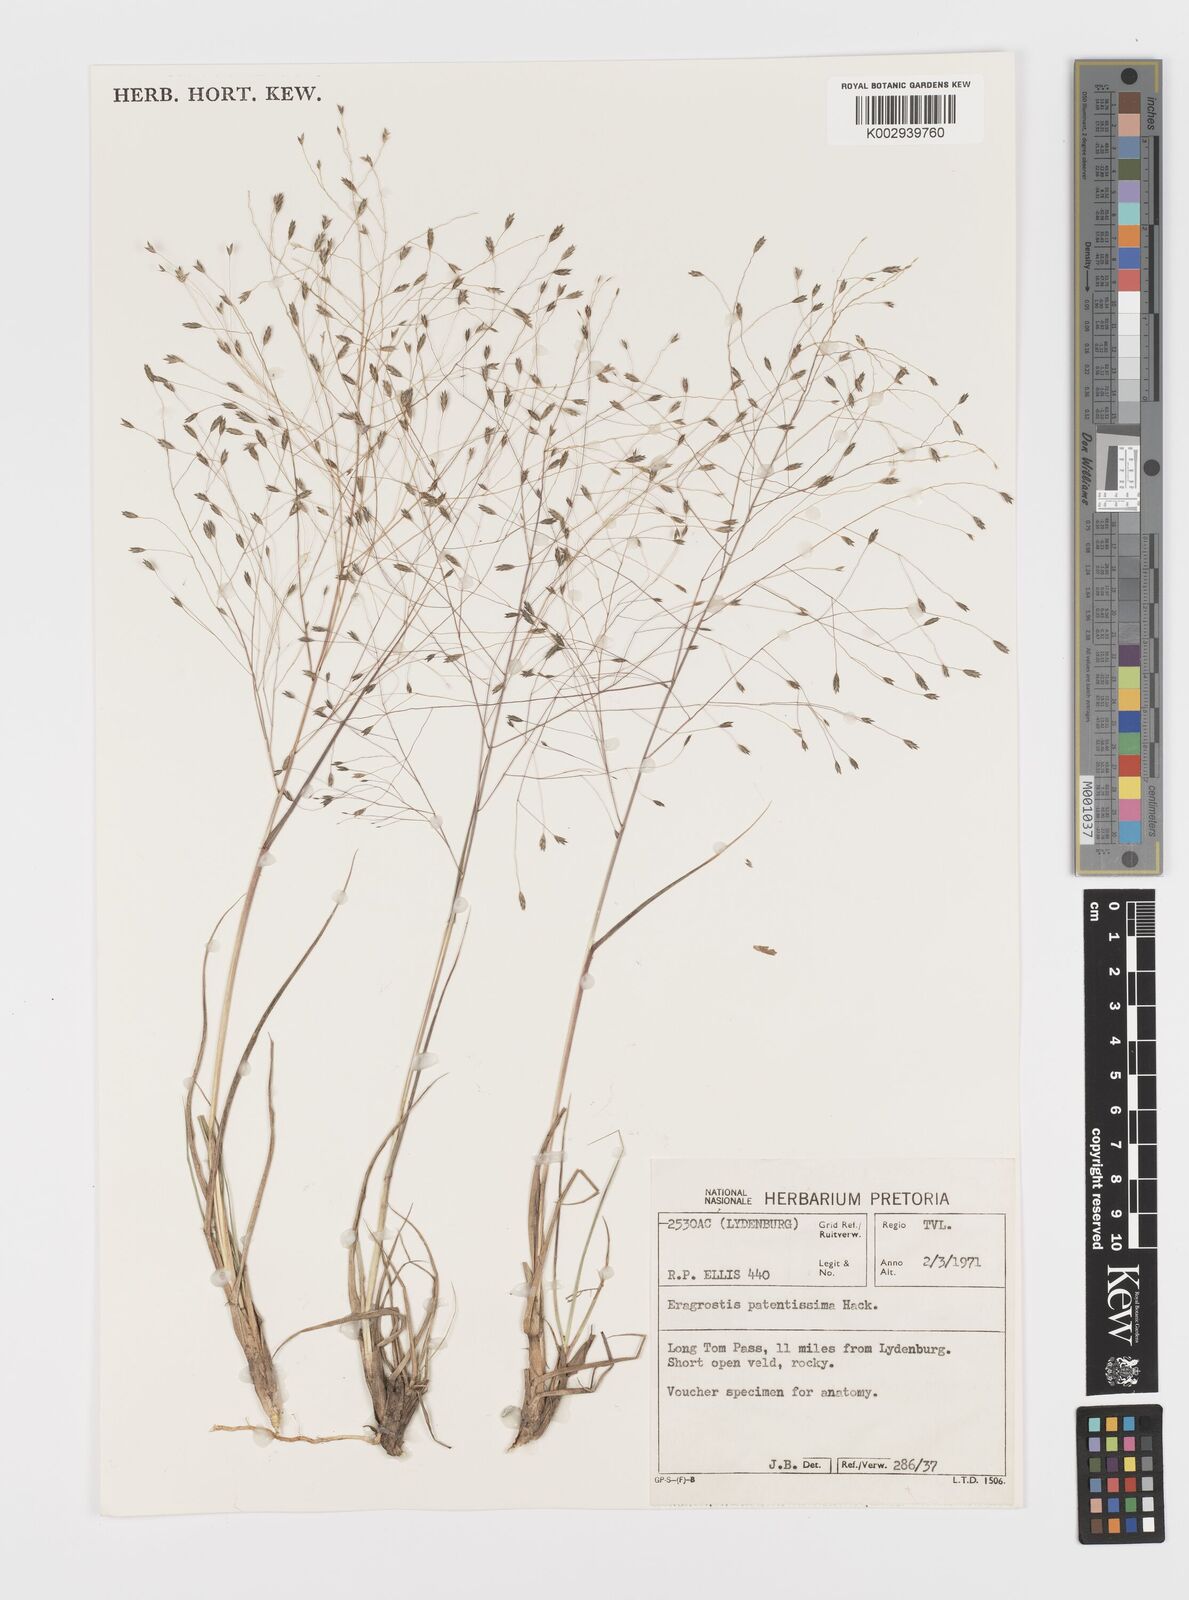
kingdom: Plantae
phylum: Tracheophyta
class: Liliopsida
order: Poales
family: Poaceae
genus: Eragrostis
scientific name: Eragrostis patentissima
